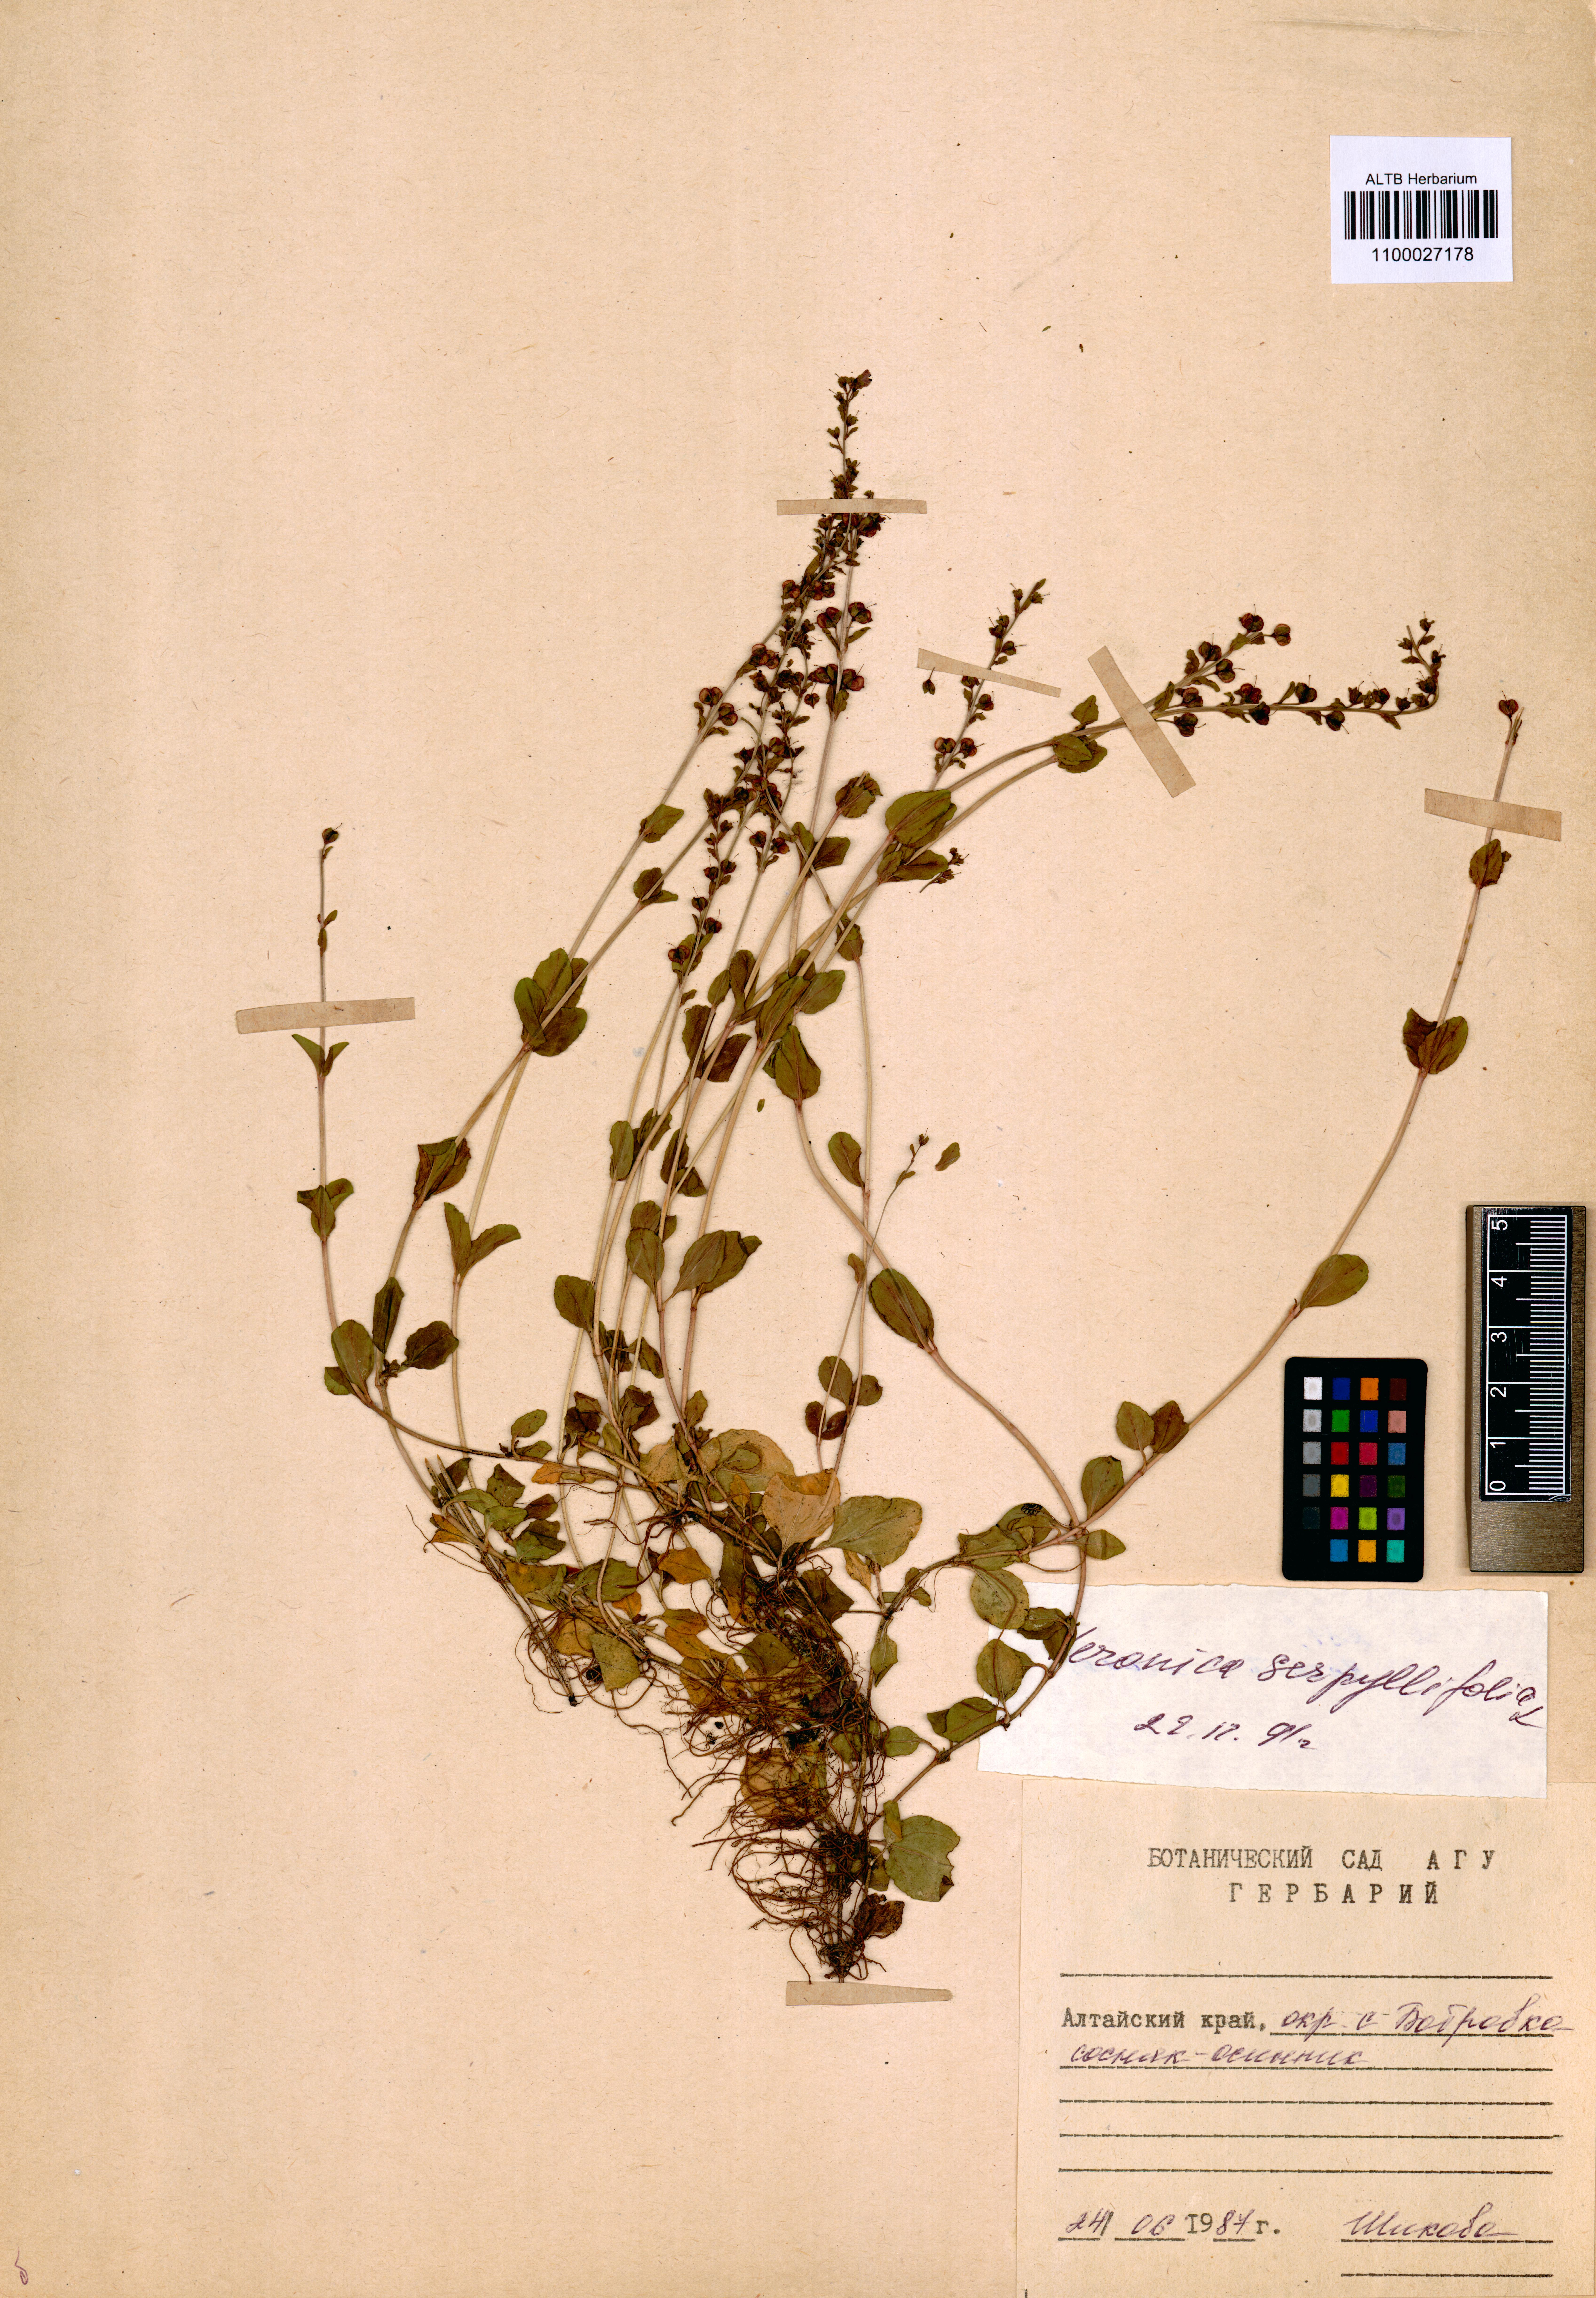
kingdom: Plantae
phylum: Tracheophyta
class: Magnoliopsida
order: Lamiales
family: Plantaginaceae
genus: Veronica
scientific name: Veronica serpyllifolia
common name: Thyme-leaved speedwell
